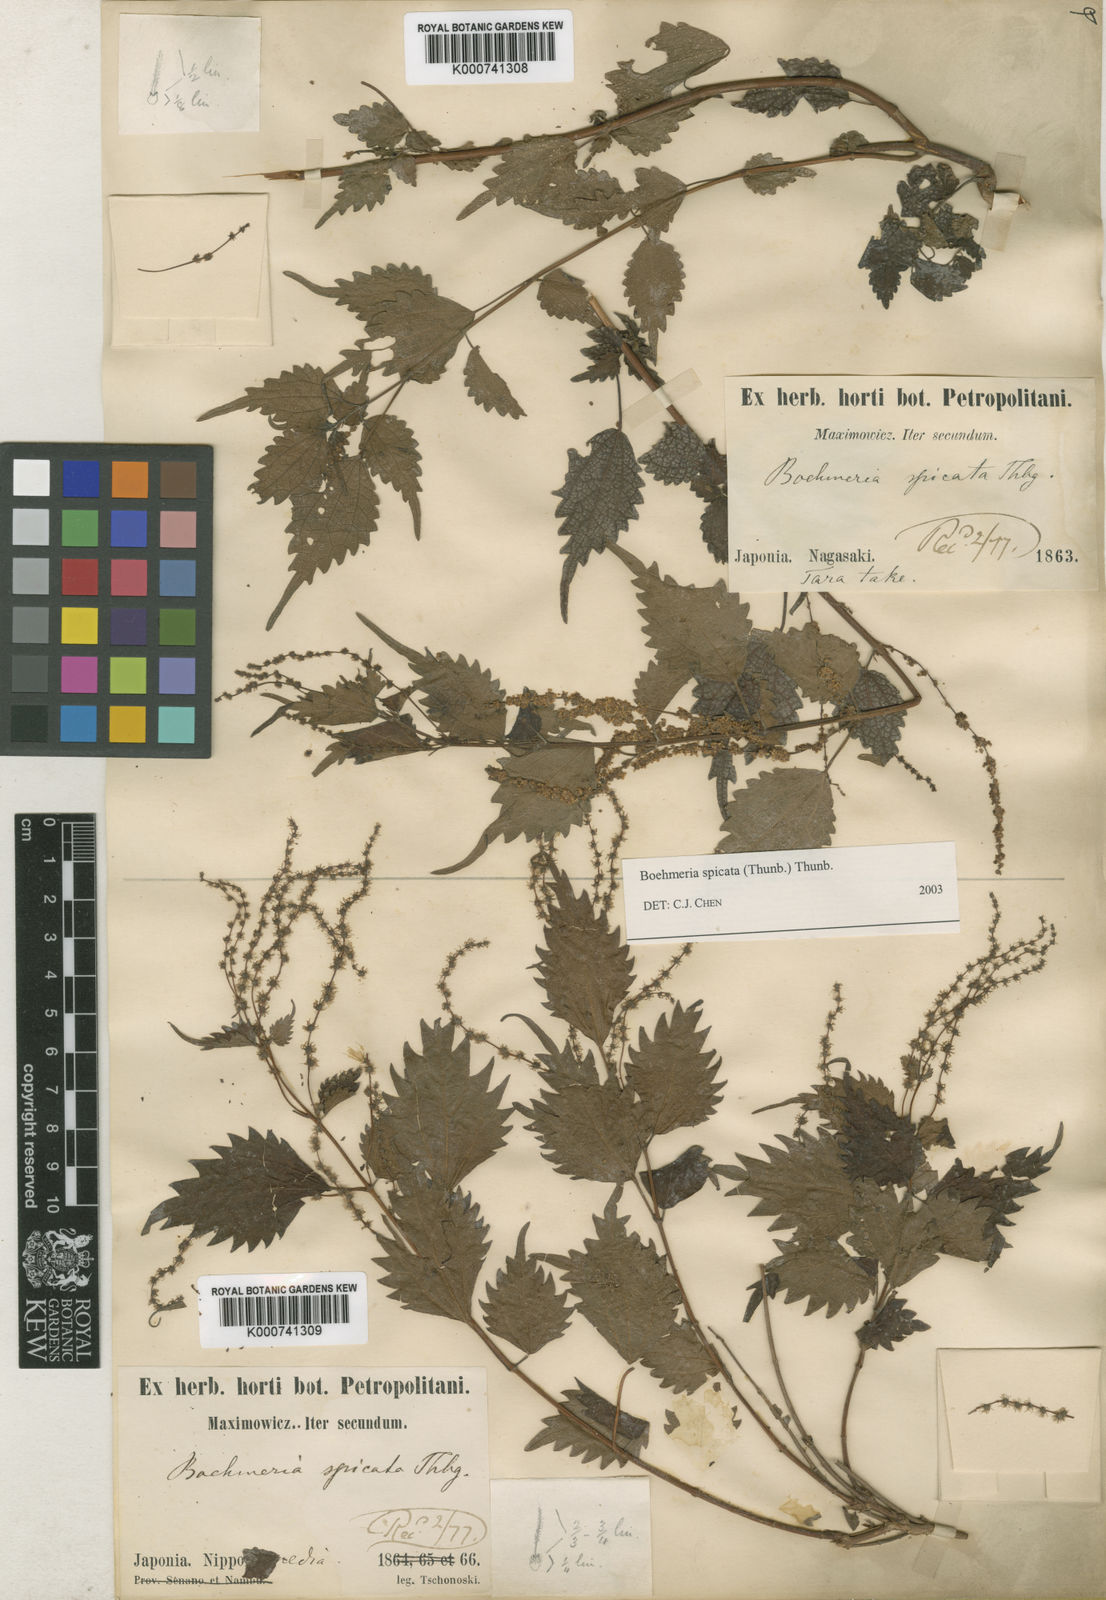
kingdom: Plantae
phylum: Tracheophyta
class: Magnoliopsida
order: Rosales
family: Urticaceae
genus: Boehmeria
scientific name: Boehmeria japonica
